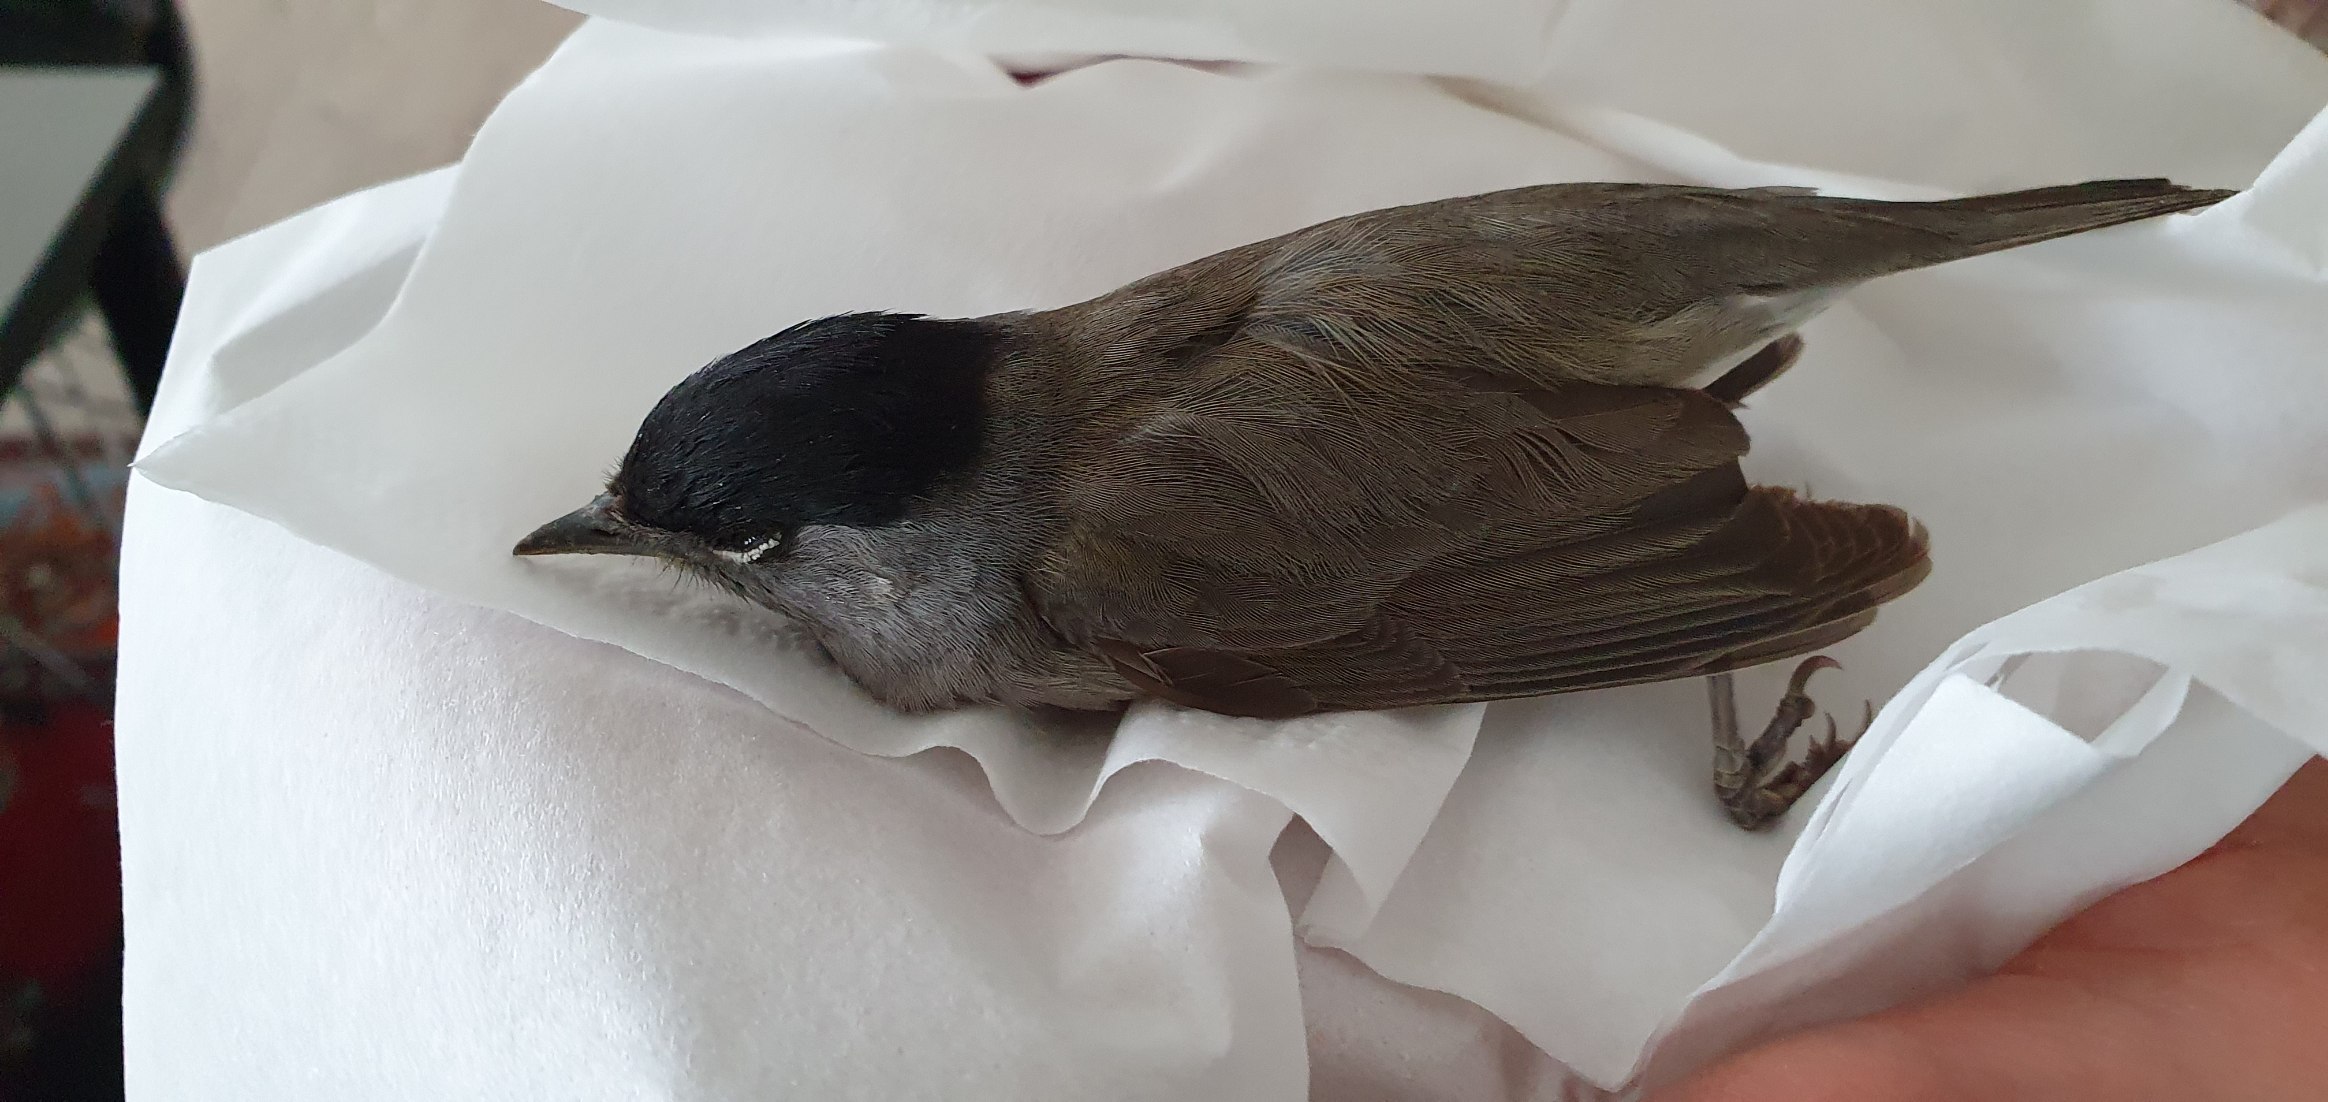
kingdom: Animalia
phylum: Chordata
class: Aves
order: Passeriformes
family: Sylviidae
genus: Sylvia
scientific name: Sylvia atricapilla
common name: Munk
